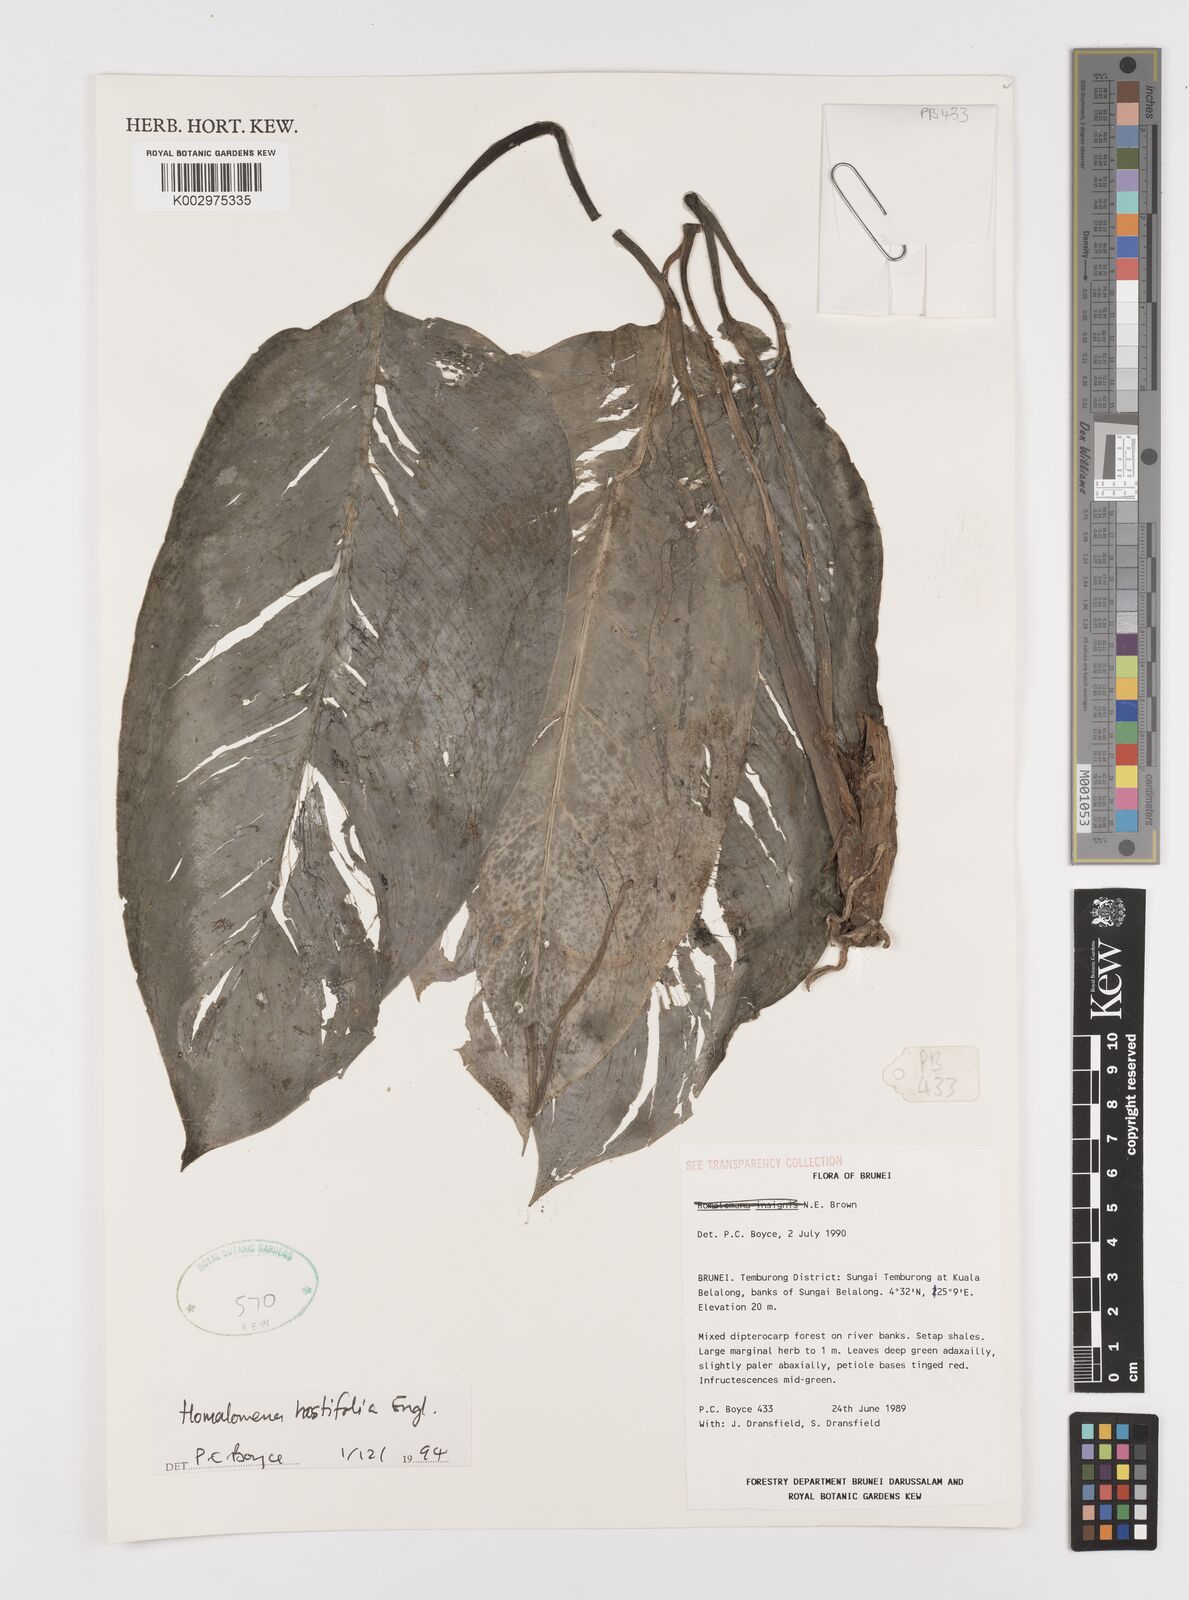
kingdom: Plantae
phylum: Tracheophyta
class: Liliopsida
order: Alismatales
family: Araceae
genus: Homalomena
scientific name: Homalomena ovata
